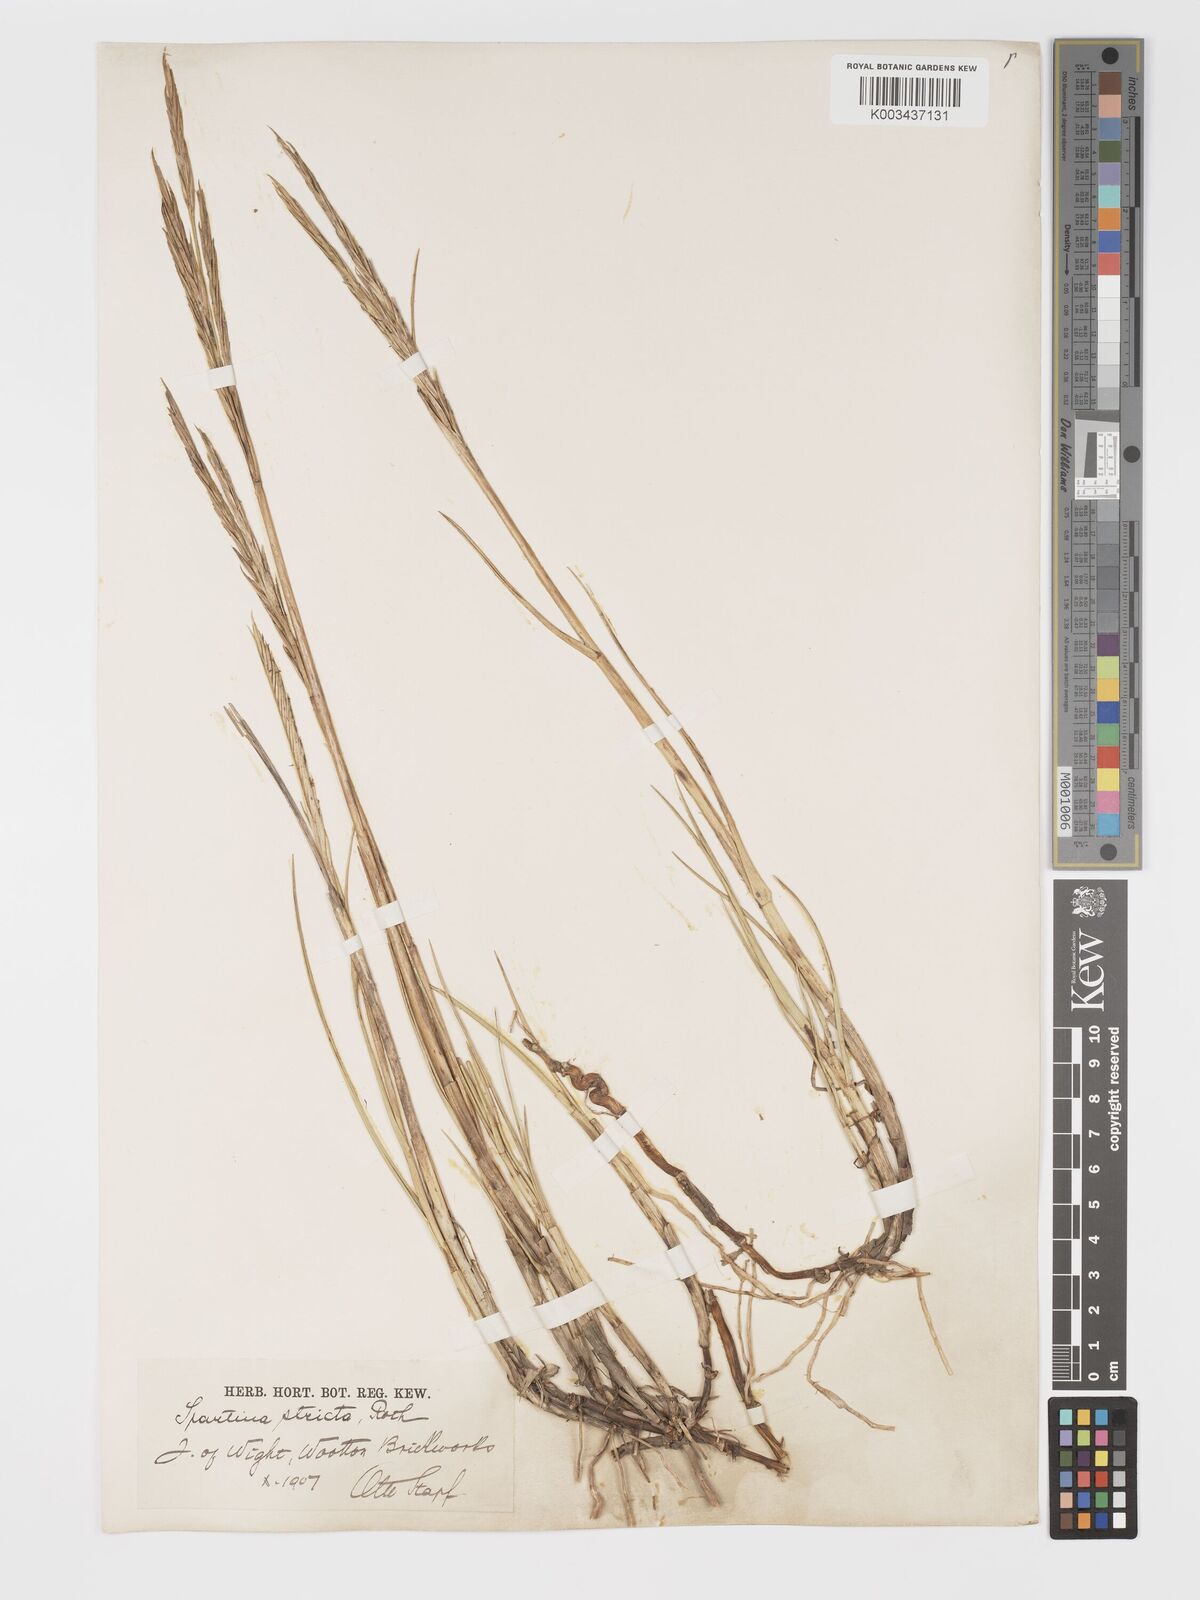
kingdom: Plantae
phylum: Tracheophyta
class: Liliopsida
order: Poales
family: Poaceae
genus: Sporobolus
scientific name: Sporobolus maritimus
